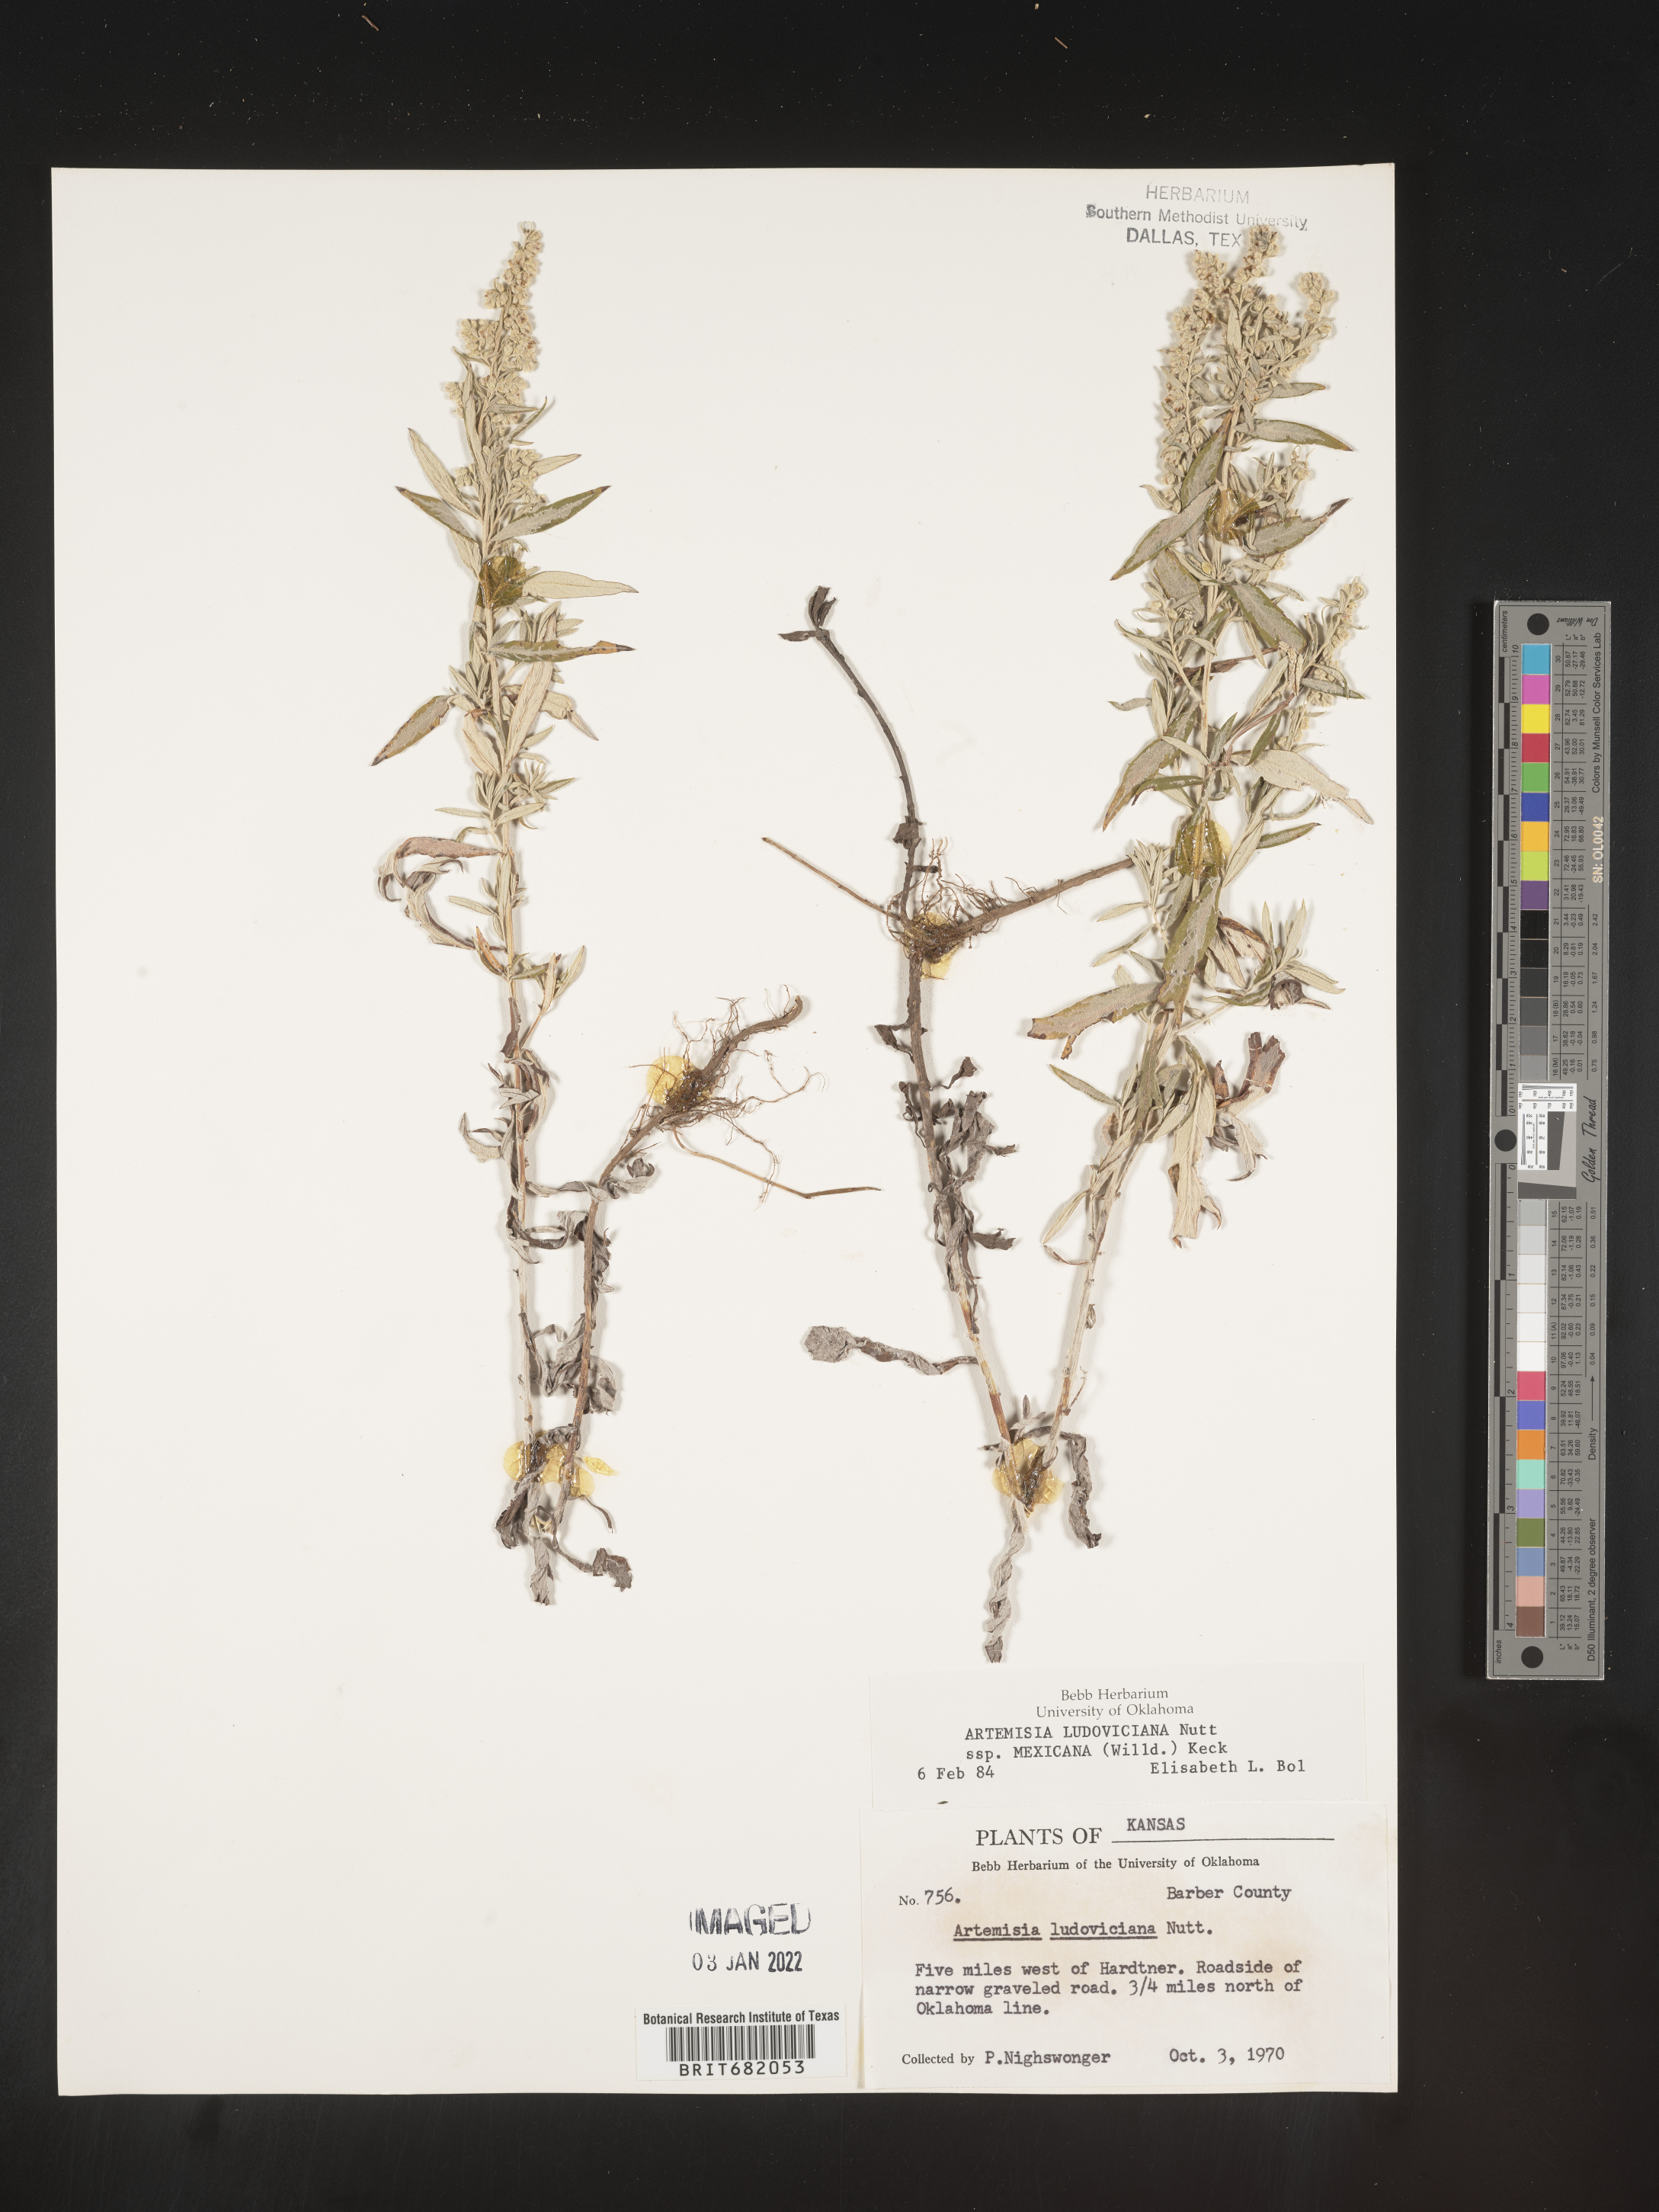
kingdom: Plantae
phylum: Tracheophyta
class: Magnoliopsida
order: Asterales
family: Asteraceae
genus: Artemisia
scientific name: Artemisia ludoviciana
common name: Western mugwort
